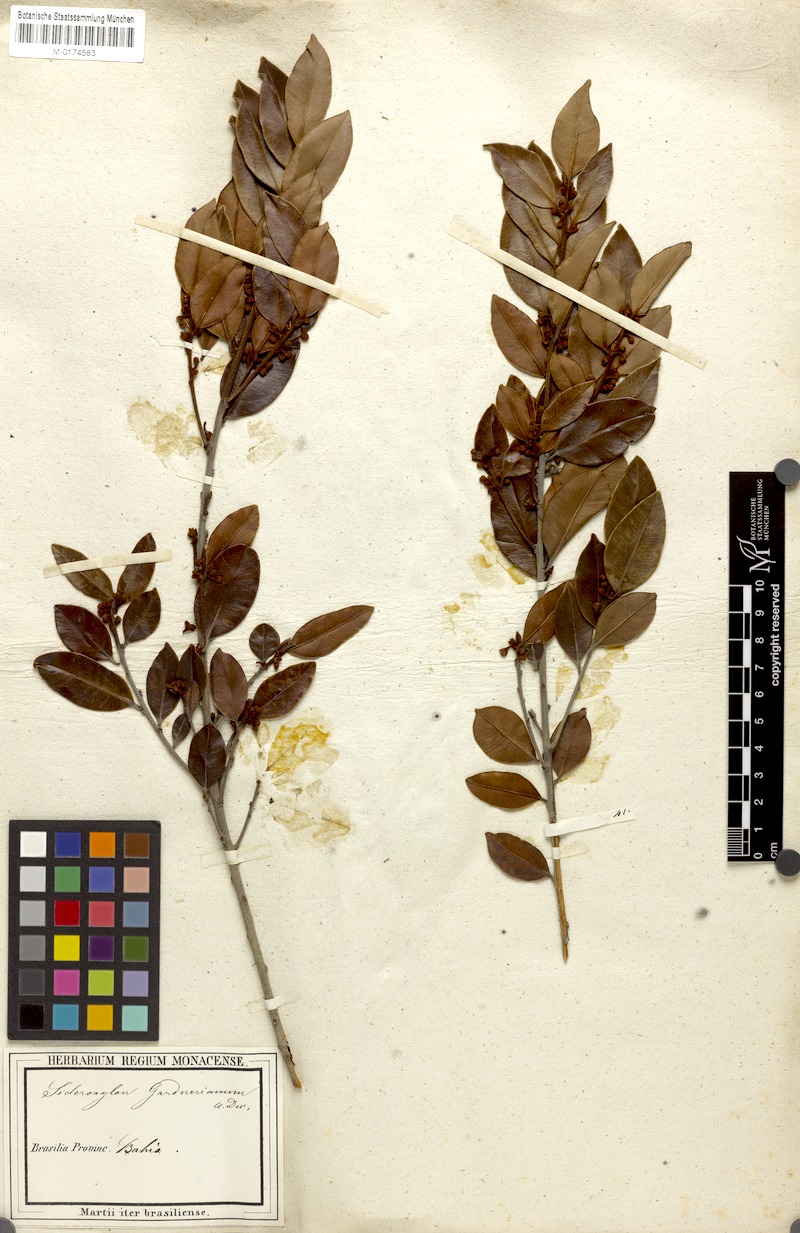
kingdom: Plantae
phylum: Tracheophyta
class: Magnoliopsida
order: Ericales
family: Sapotaceae
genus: Micropholis
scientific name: Micropholis gnaphaloclados
